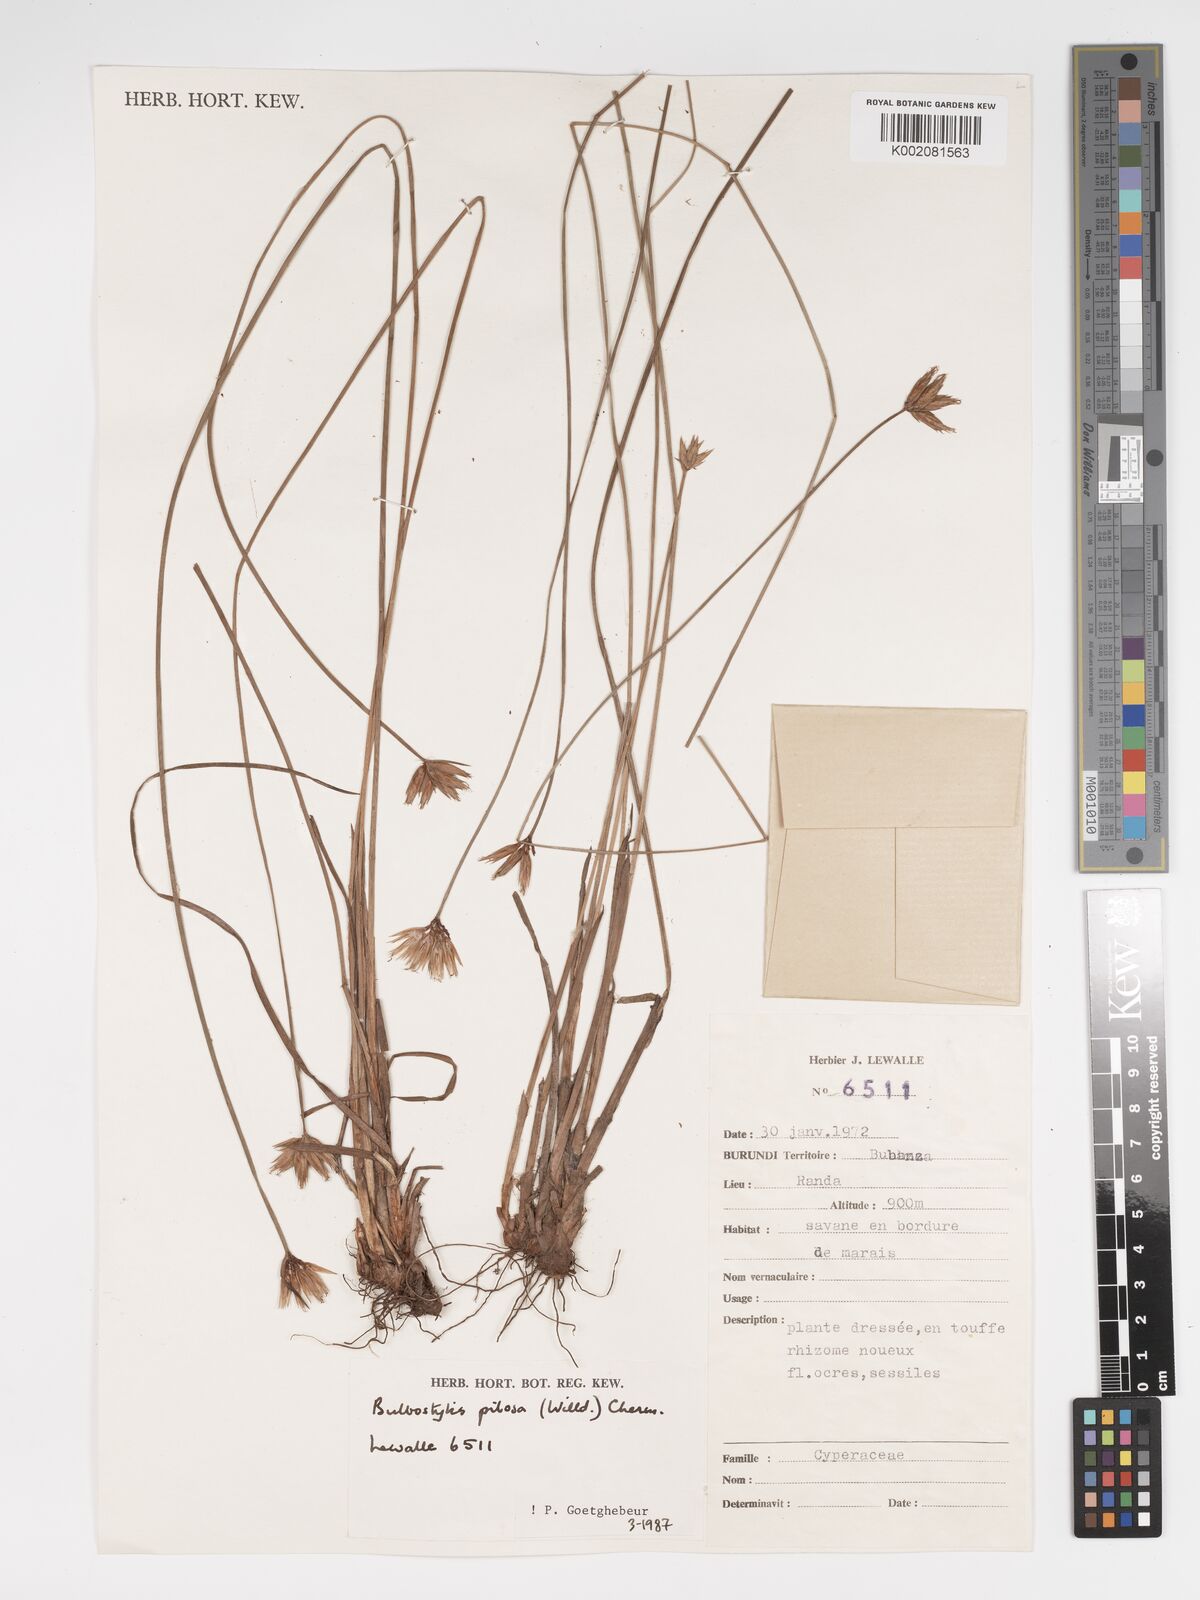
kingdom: Plantae
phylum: Tracheophyta
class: Liliopsida
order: Poales
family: Cyperaceae
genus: Bulbostylis
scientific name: Bulbostylis pilosa
